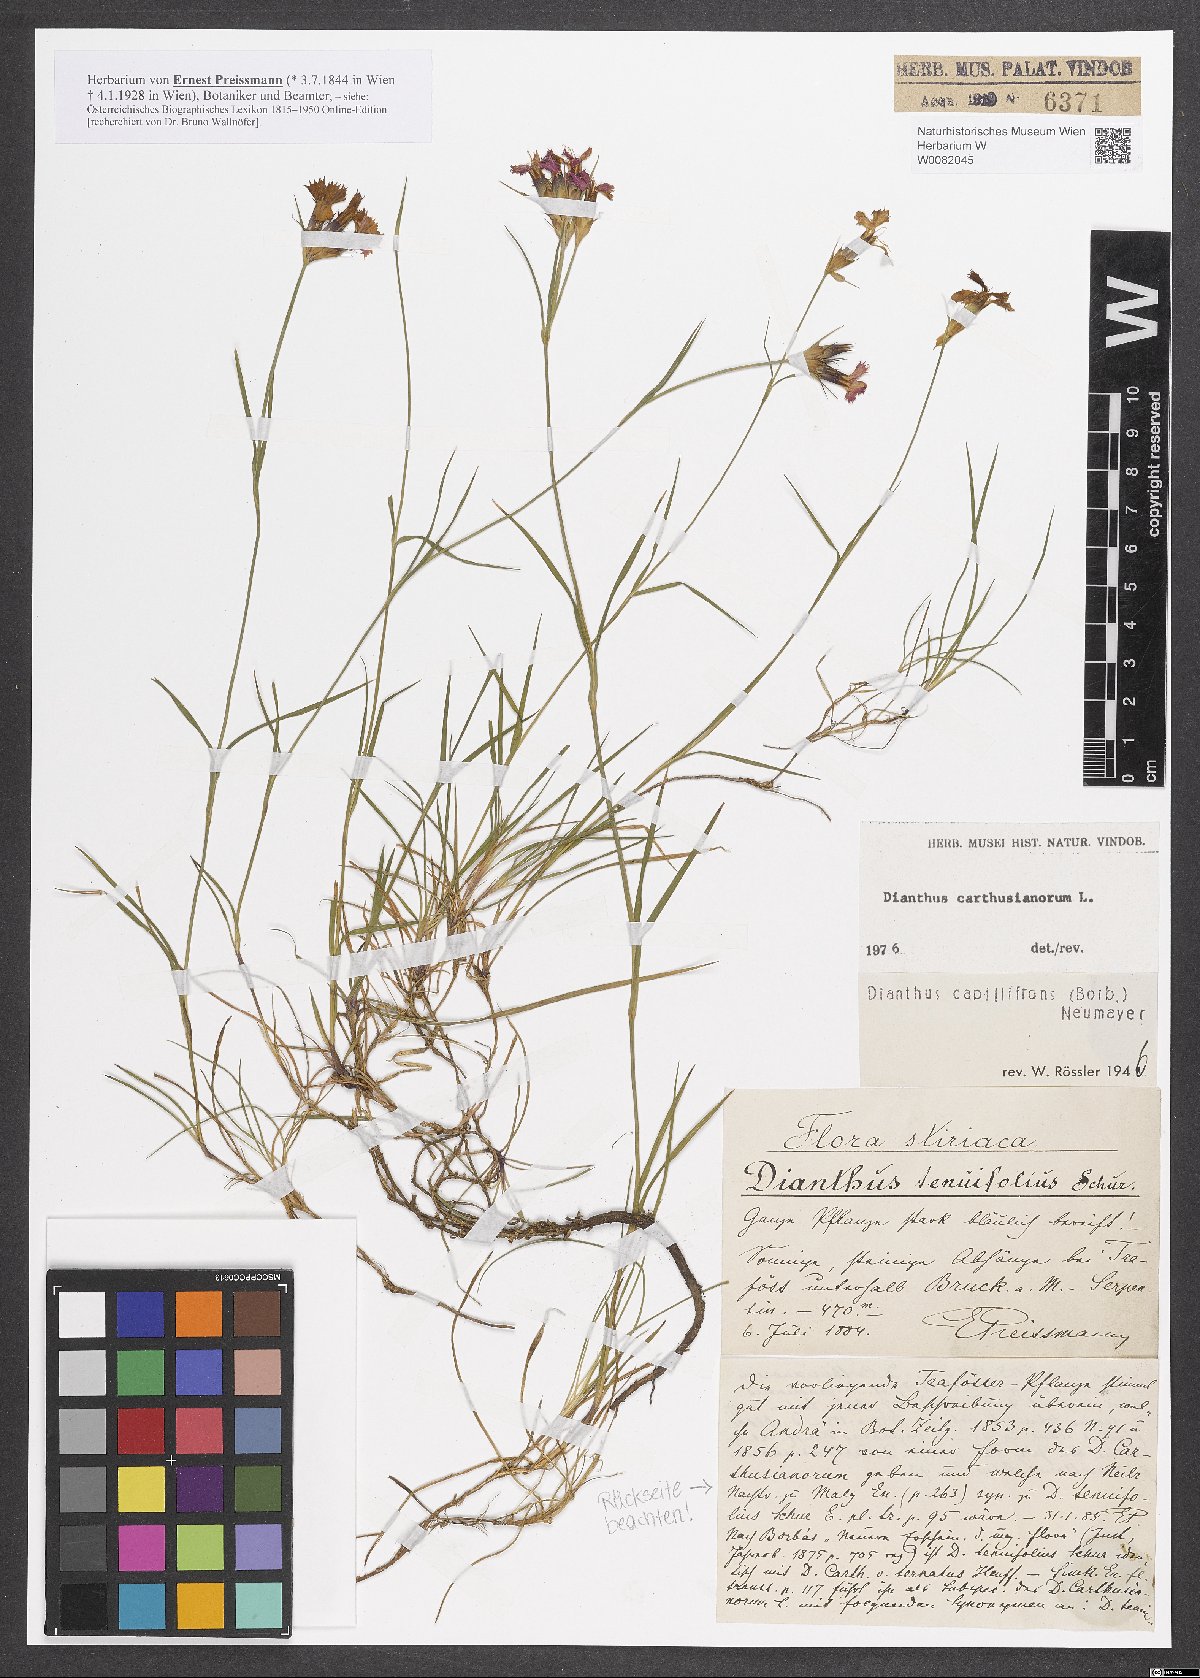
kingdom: Plantae
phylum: Tracheophyta
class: Magnoliopsida
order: Caryophyllales
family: Caryophyllaceae
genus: Dianthus
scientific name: Dianthus carthusianorum
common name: Carthusian pink
